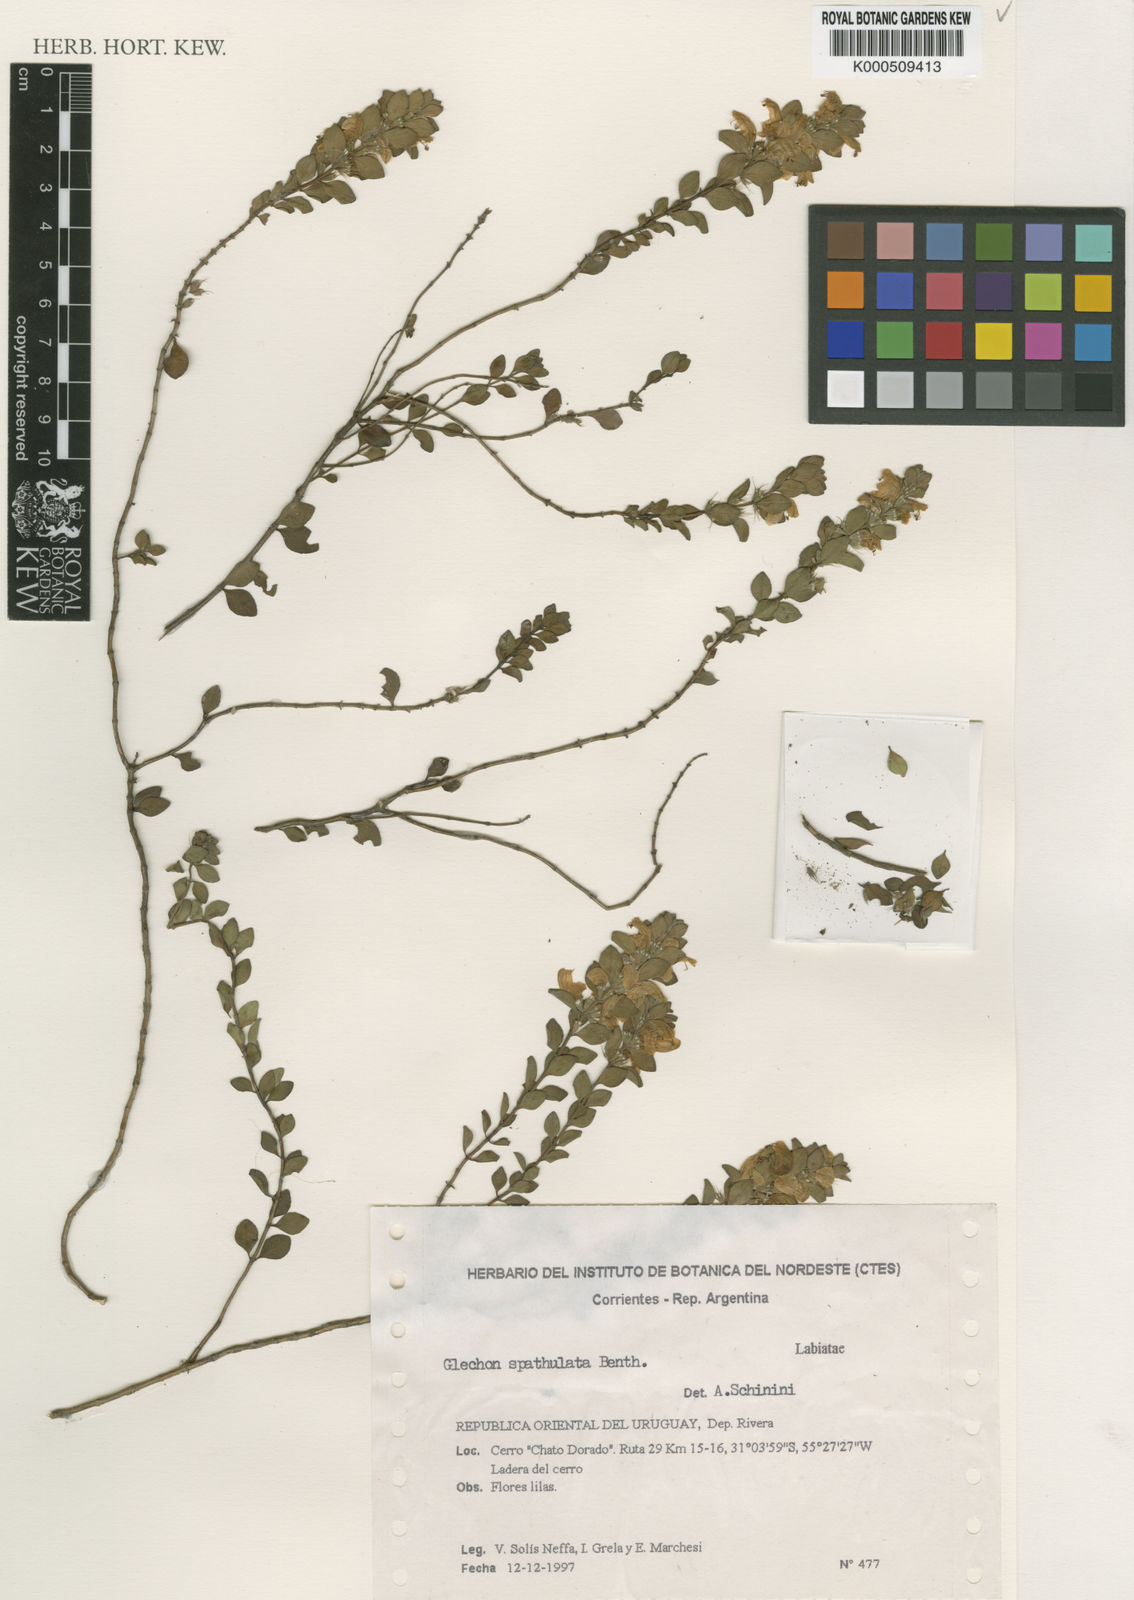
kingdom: Plantae
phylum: Tracheophyta
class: Magnoliopsida
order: Lamiales
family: Lamiaceae
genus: Glechon
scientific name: Glechon thymoides
